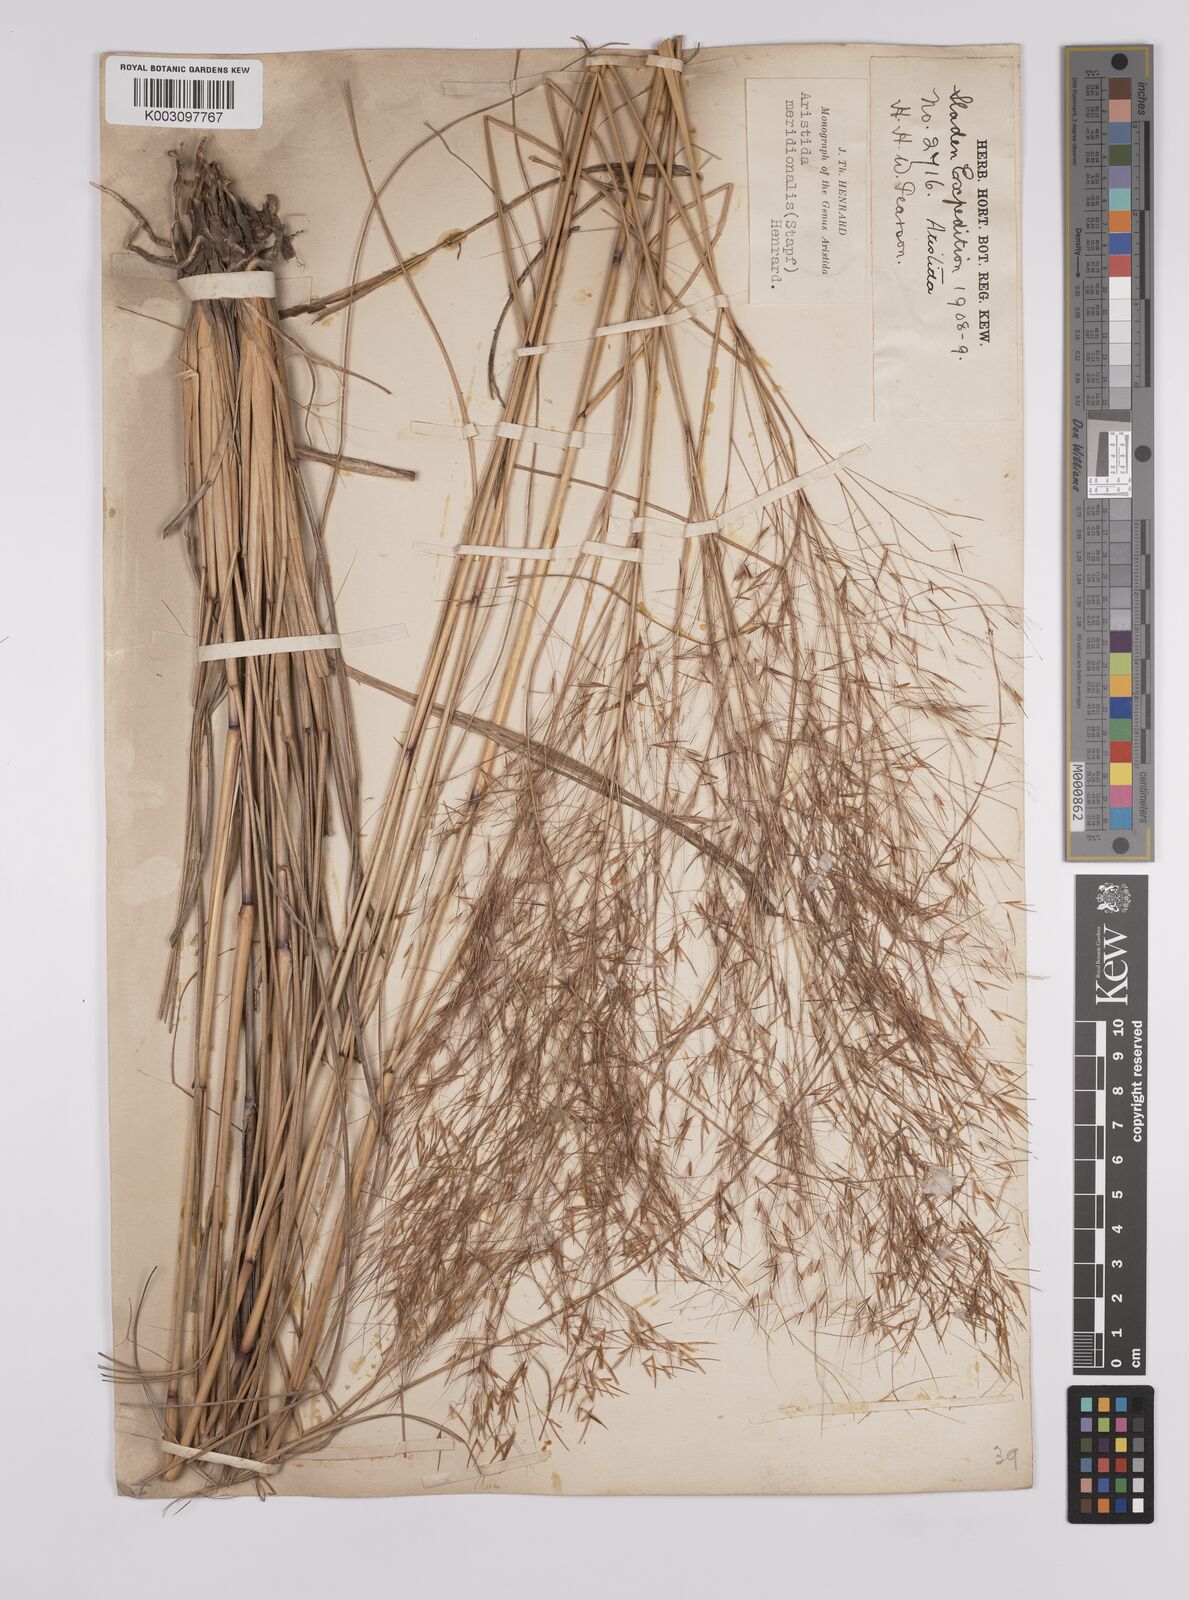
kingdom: Plantae
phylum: Tracheophyta
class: Liliopsida
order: Poales
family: Poaceae
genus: Aristida
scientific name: Aristida meridionalis
